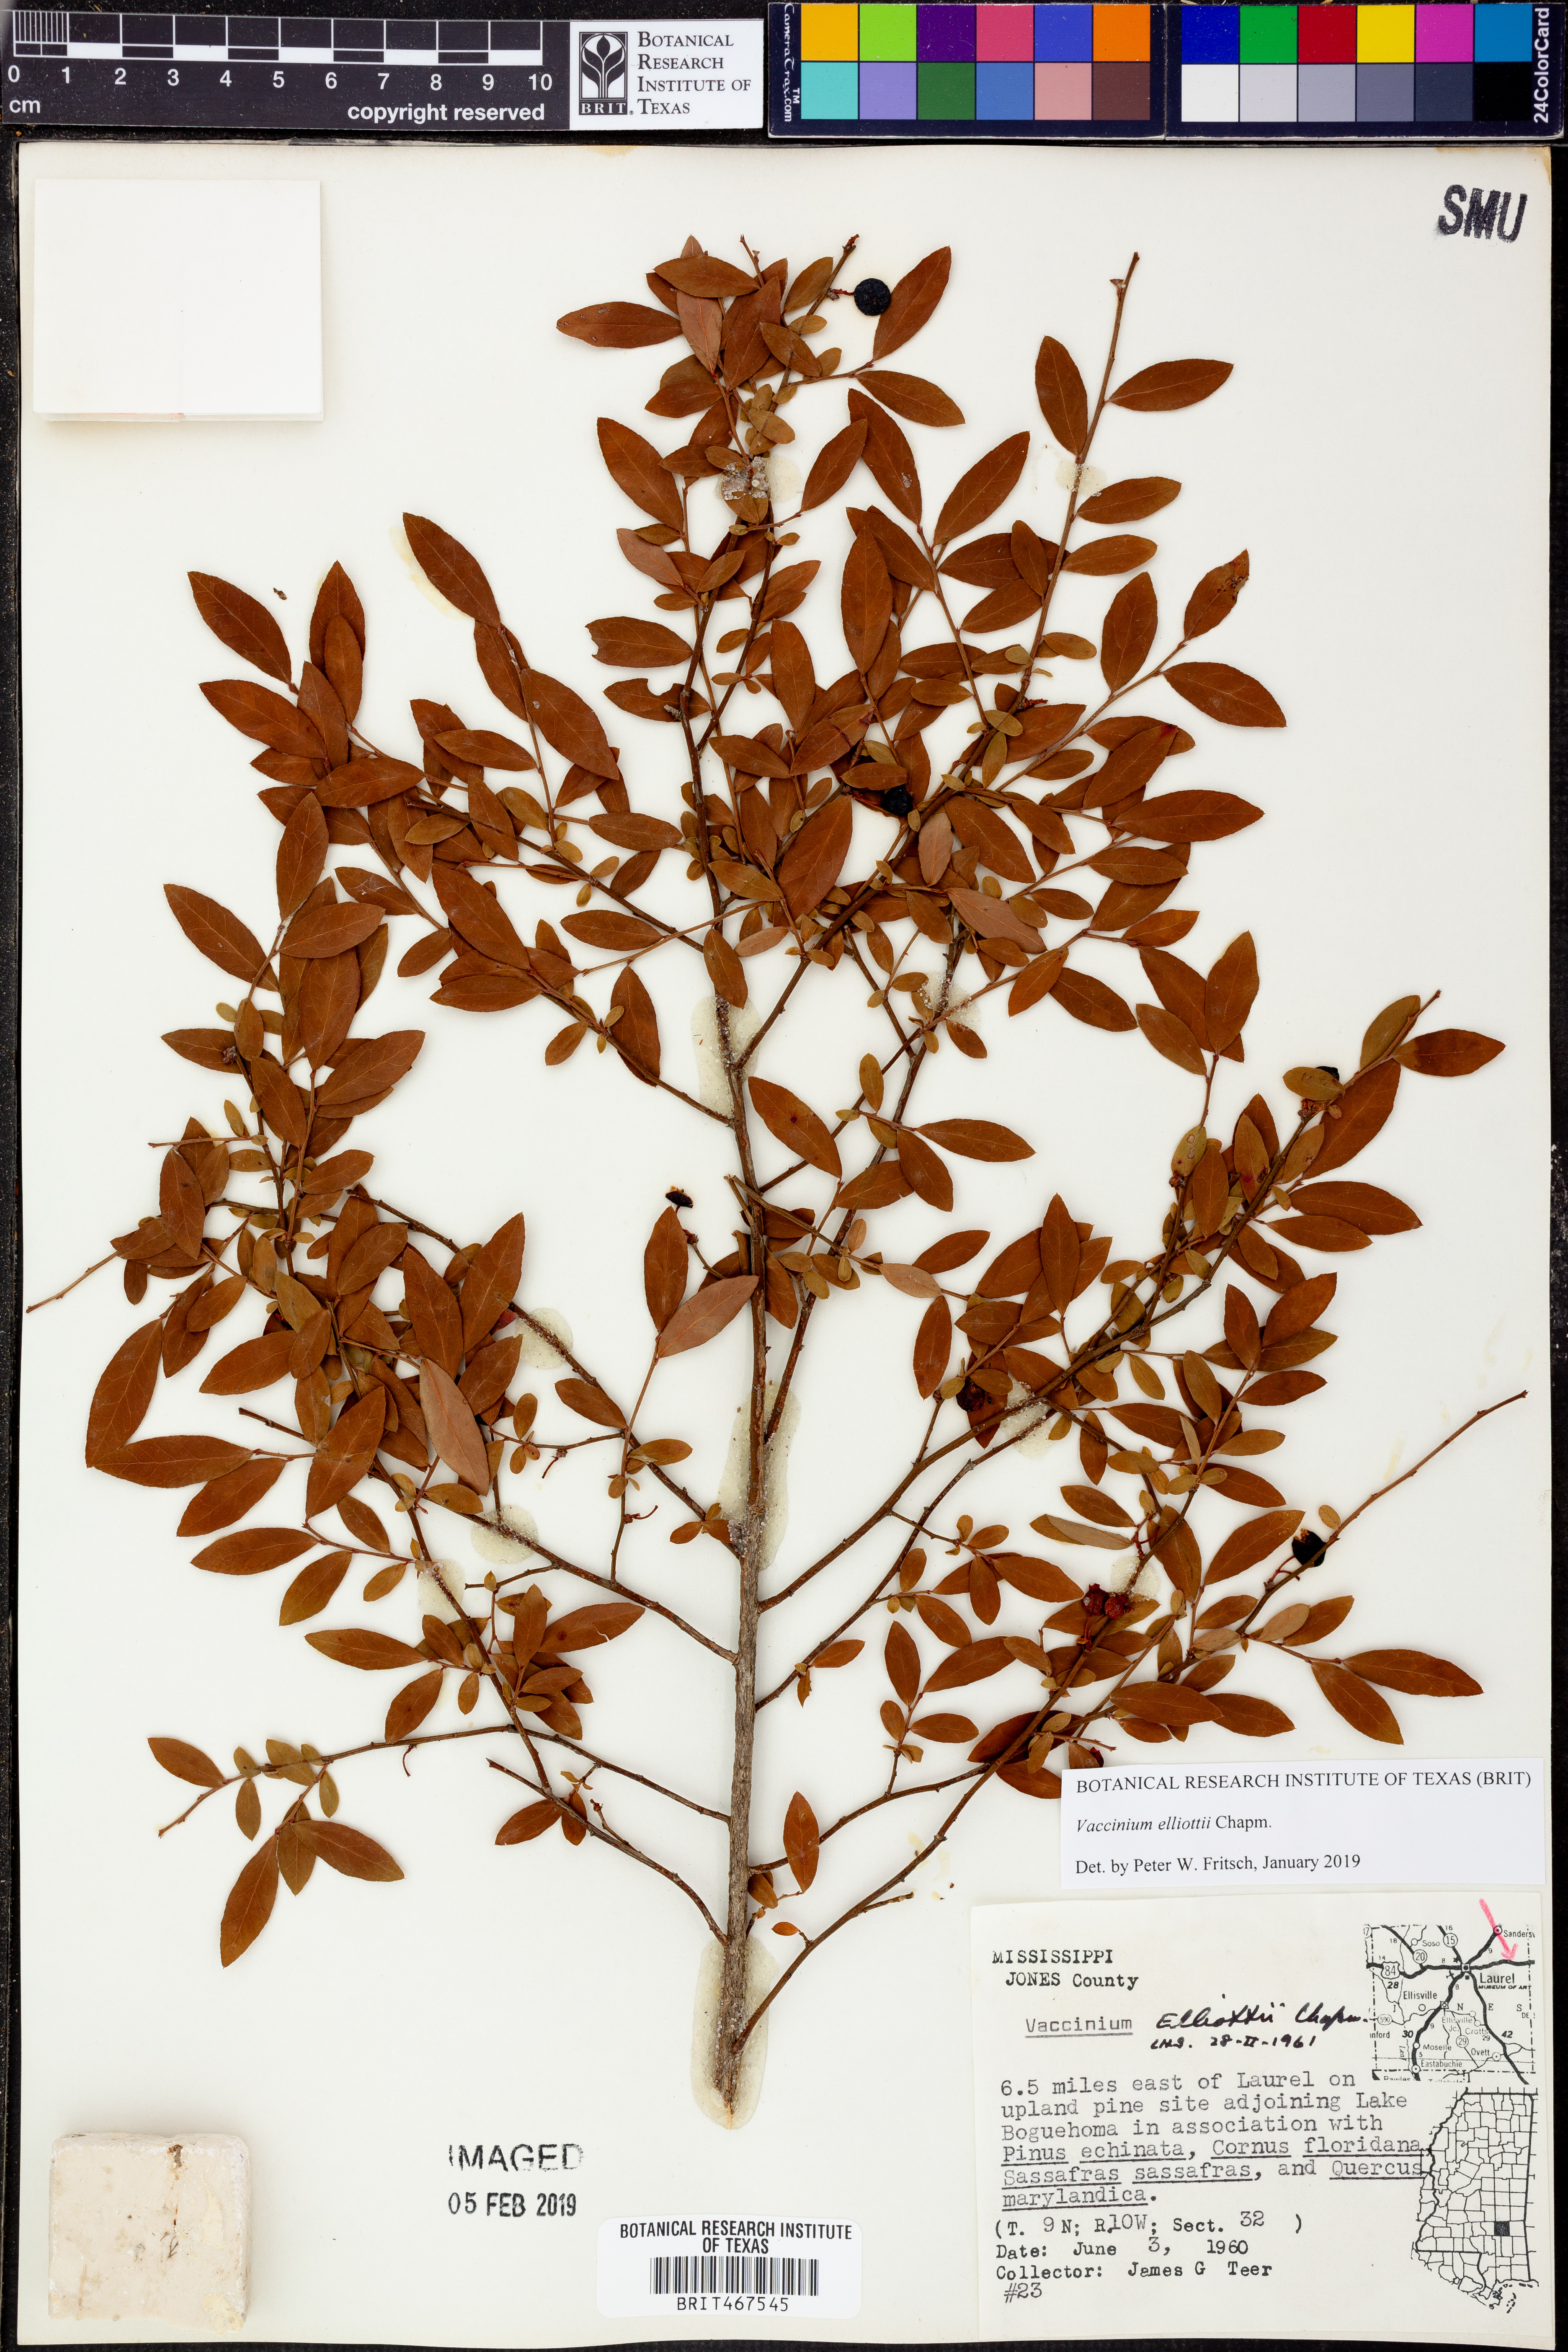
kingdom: Plantae
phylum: Tracheophyta
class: Magnoliopsida
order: Ericales
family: Ericaceae
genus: Vaccinium
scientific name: Vaccinium corymbosum
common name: Blueberry
